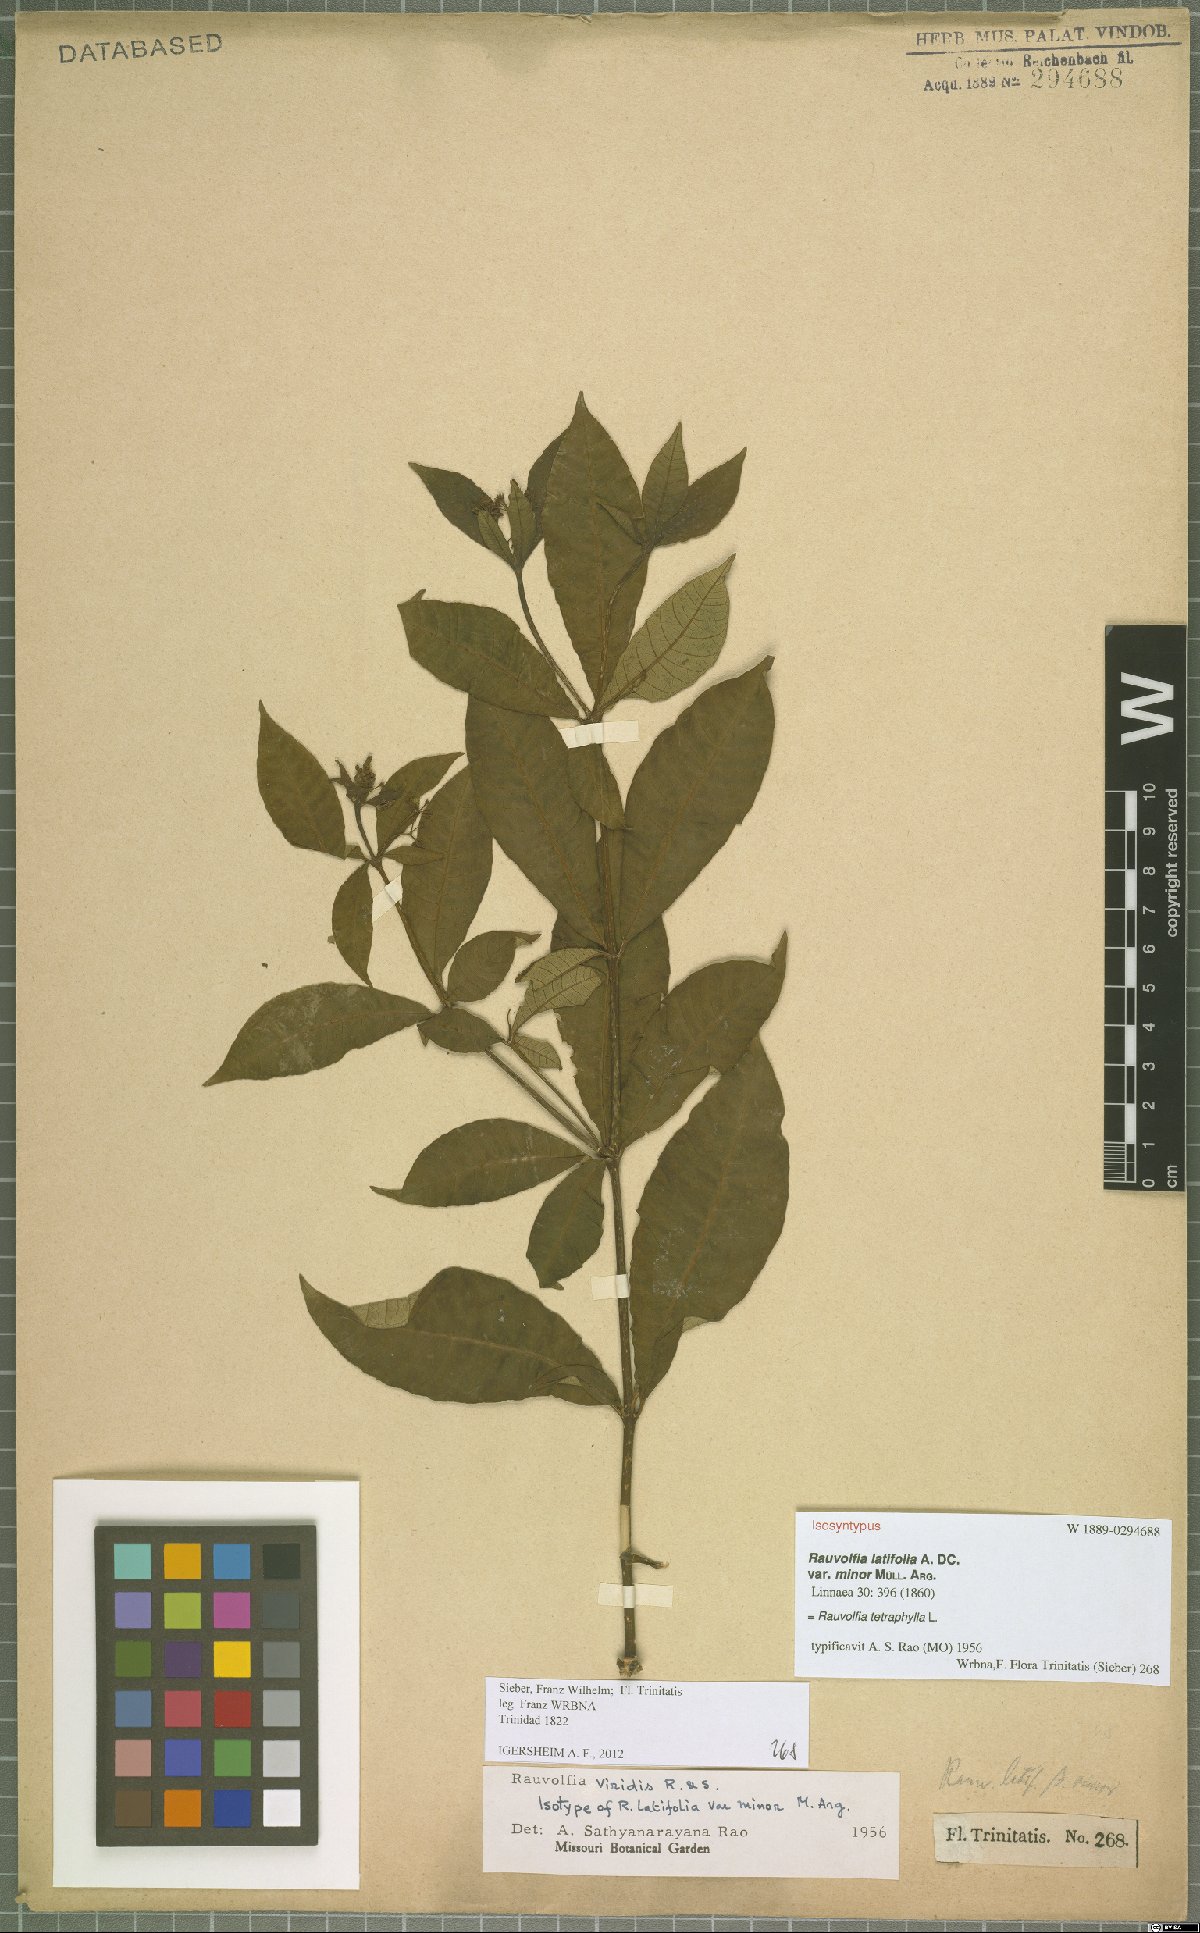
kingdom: Plantae
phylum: Tracheophyta
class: Magnoliopsida
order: Gentianales
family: Apocynaceae
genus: Rauvolfia
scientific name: Rauvolfia tetraphylla
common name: Four-leaf devil-pepper
